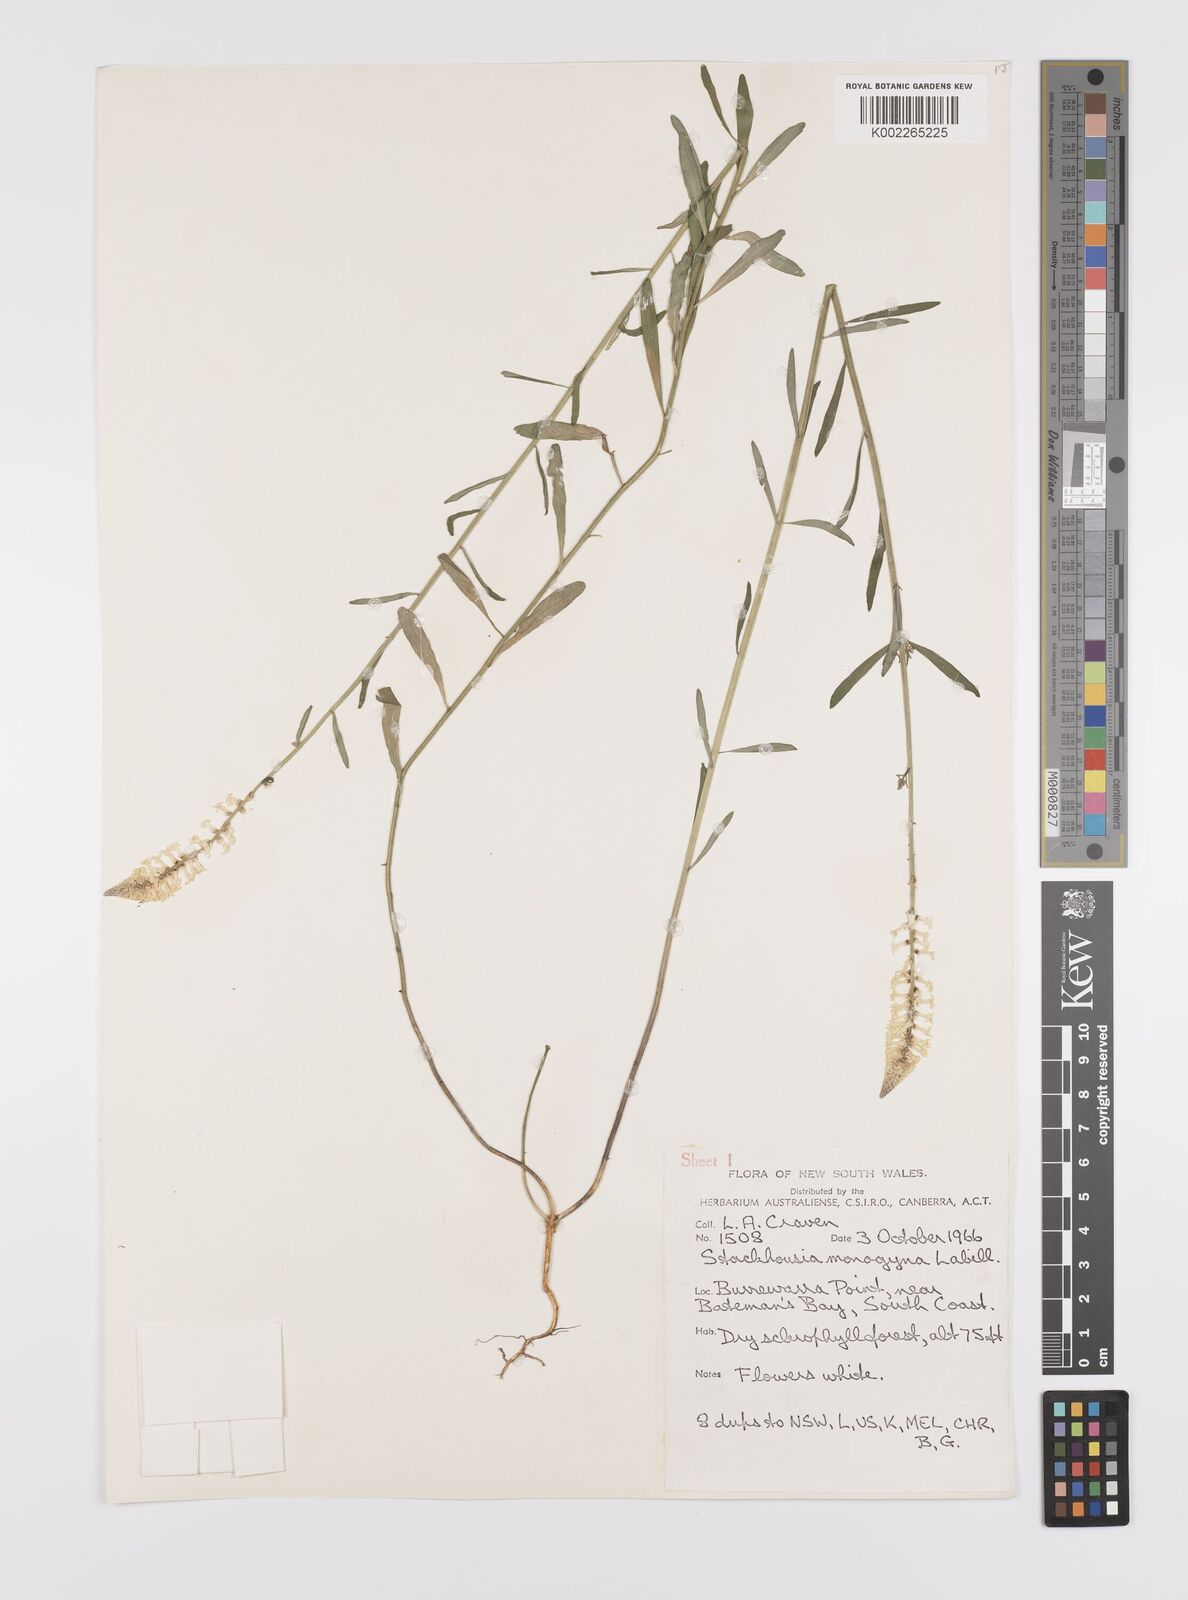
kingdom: Plantae
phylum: Tracheophyta
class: Magnoliopsida
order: Celastrales
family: Celastraceae
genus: Stackhousia
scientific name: Stackhousia monogyna
